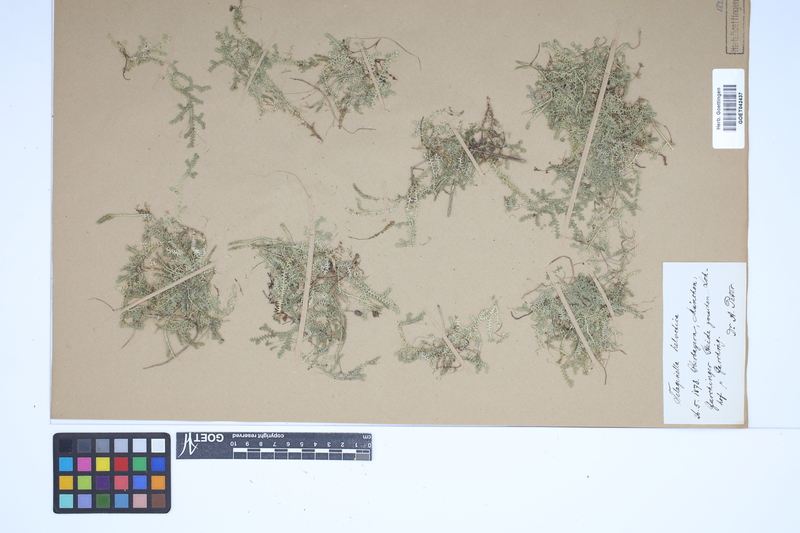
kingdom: Plantae
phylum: Tracheophyta
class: Lycopodiopsida
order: Selaginellales
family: Selaginellaceae
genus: Selaginella
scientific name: Selaginella helvetica
